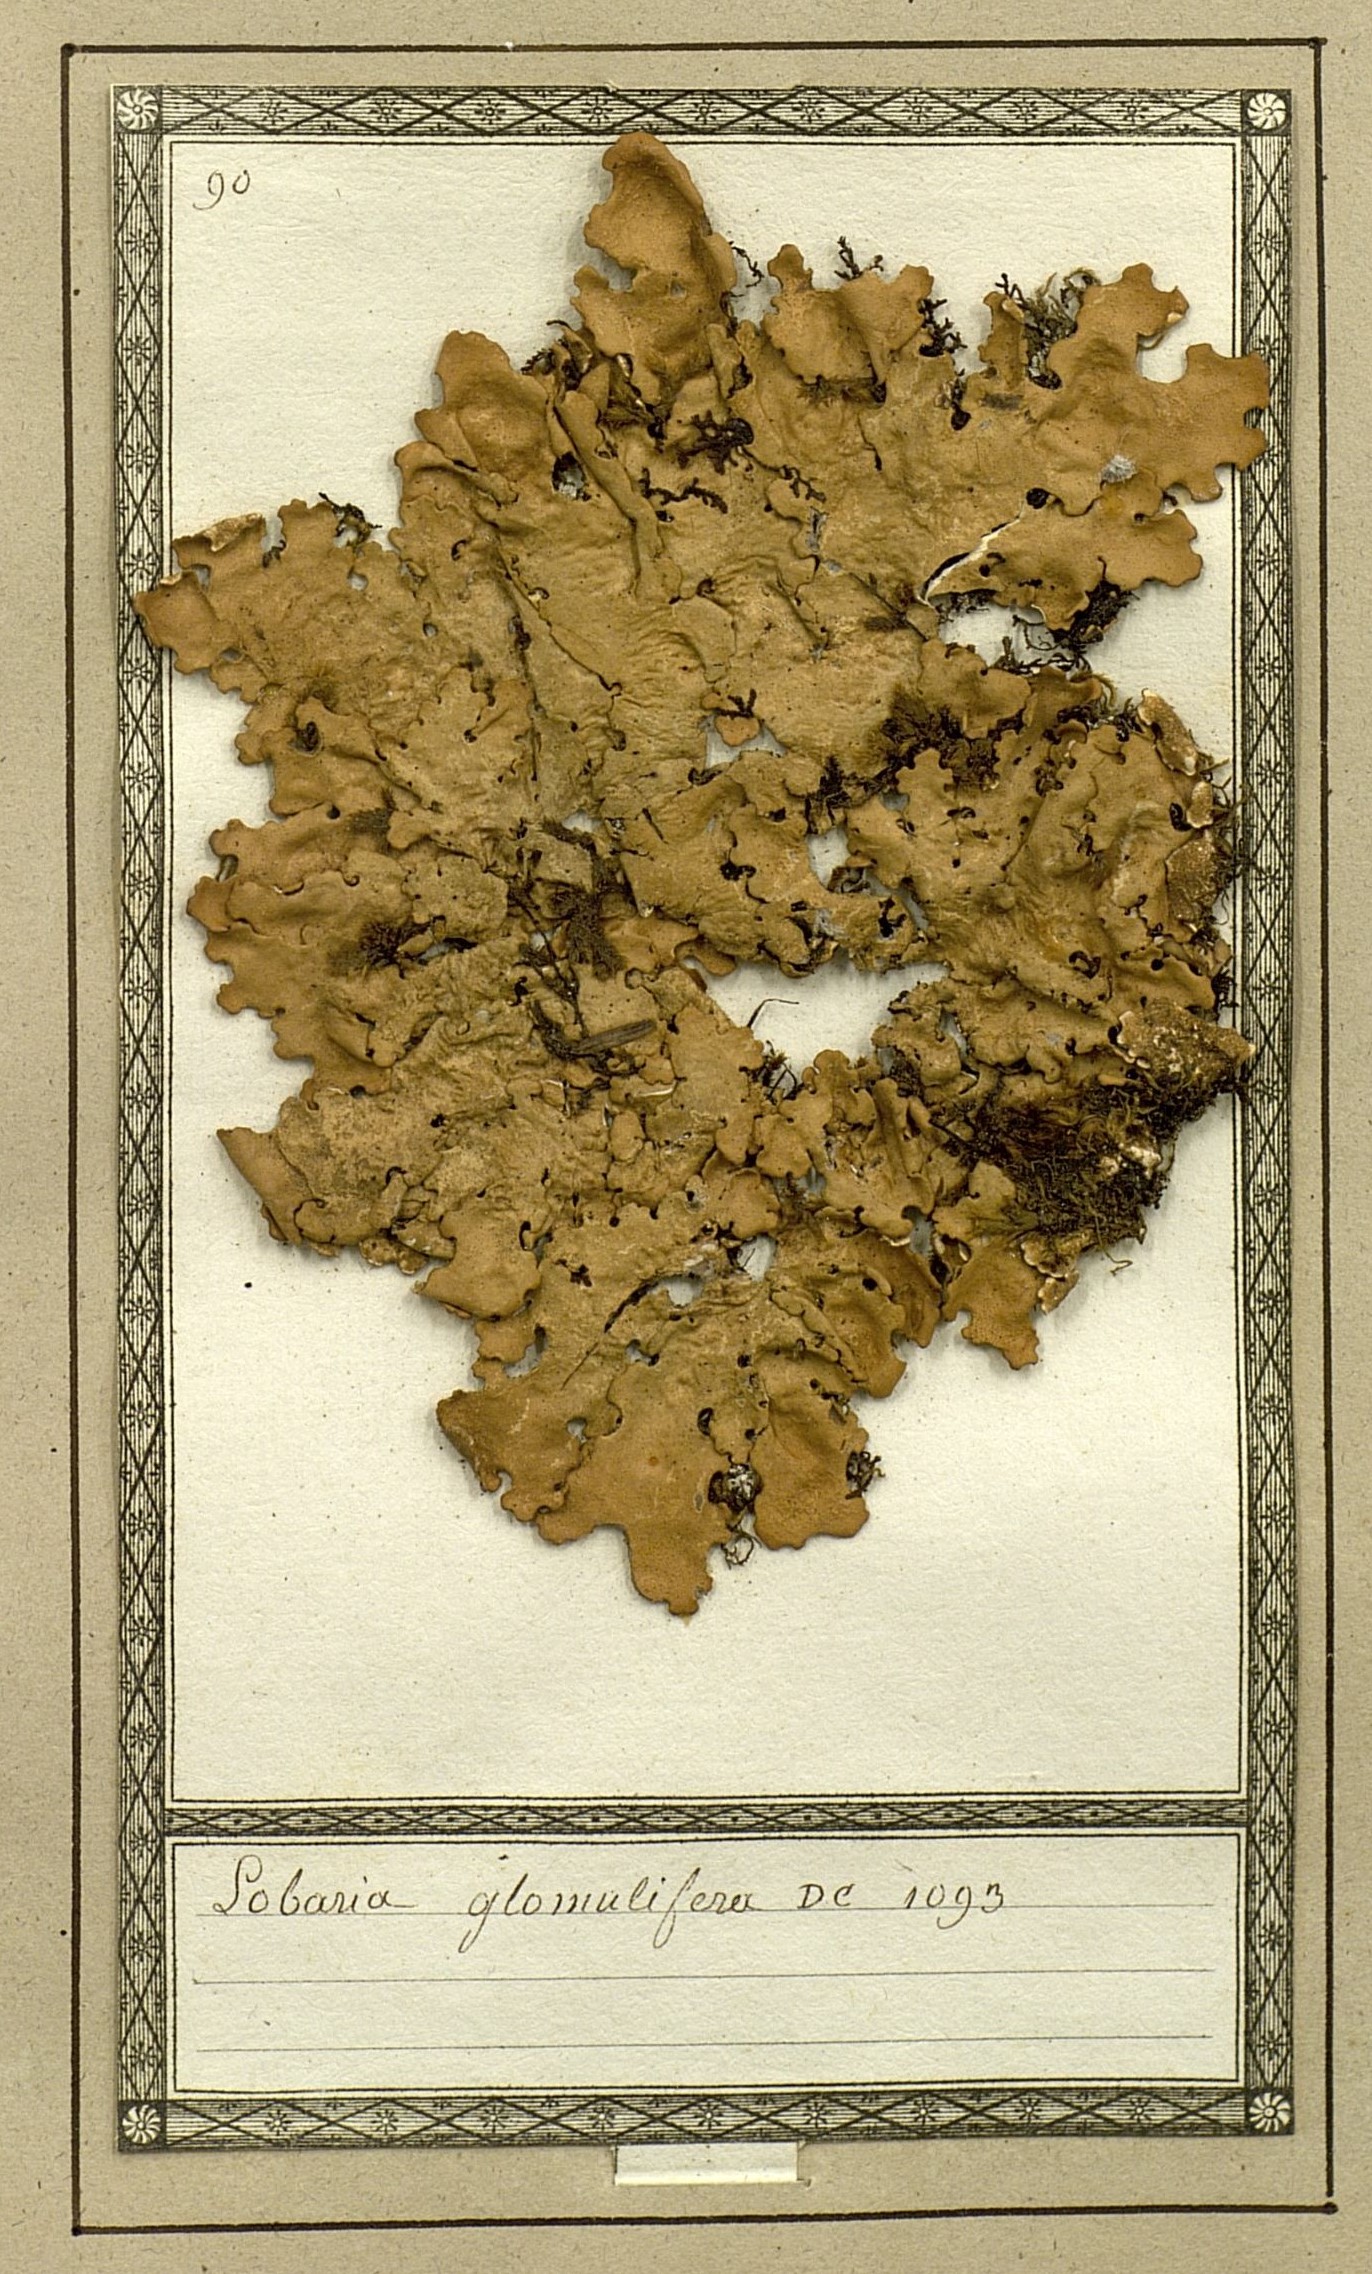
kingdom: Fungi
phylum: Ascomycota
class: Lecanoromycetes
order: Peltigerales
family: Lobariaceae
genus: Ricasolia
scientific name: Ricasolia amplissima
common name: Giant candlewax lichen
